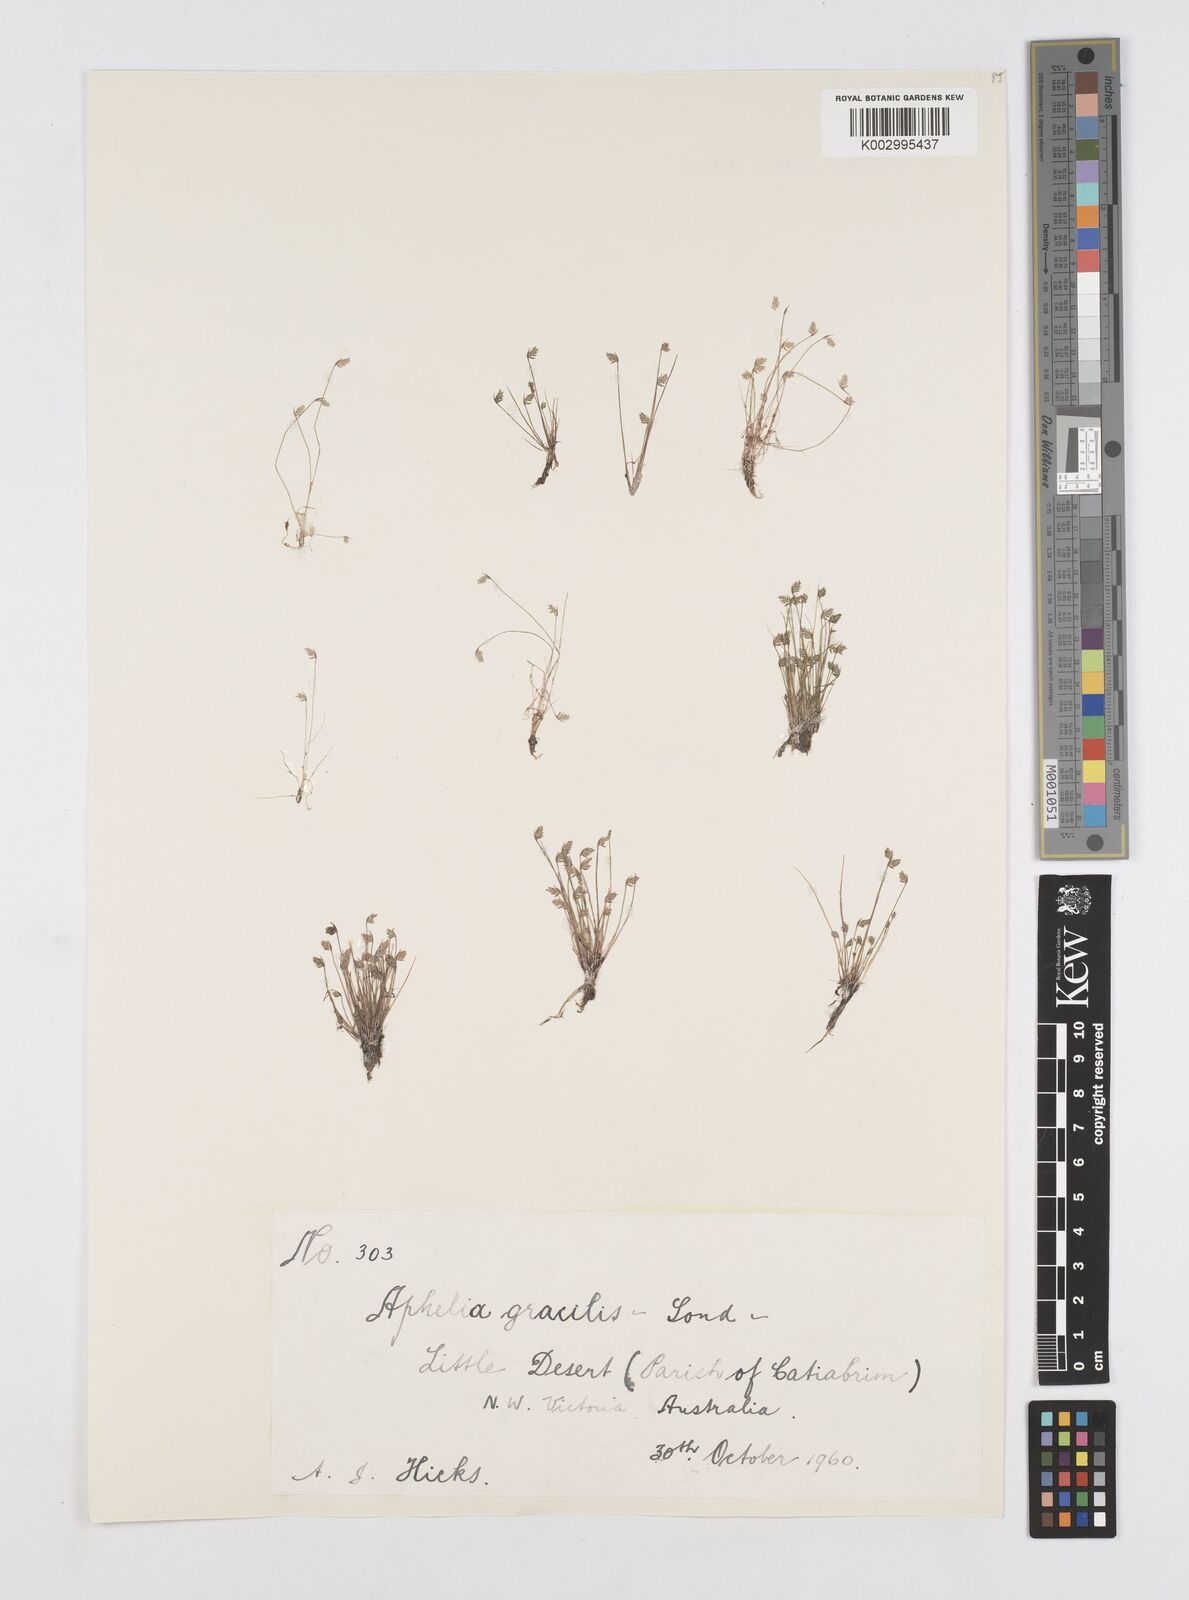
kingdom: Plantae
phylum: Tracheophyta
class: Liliopsida
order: Poales
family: Restionaceae
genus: Aphelia
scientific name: Aphelia gracilis
